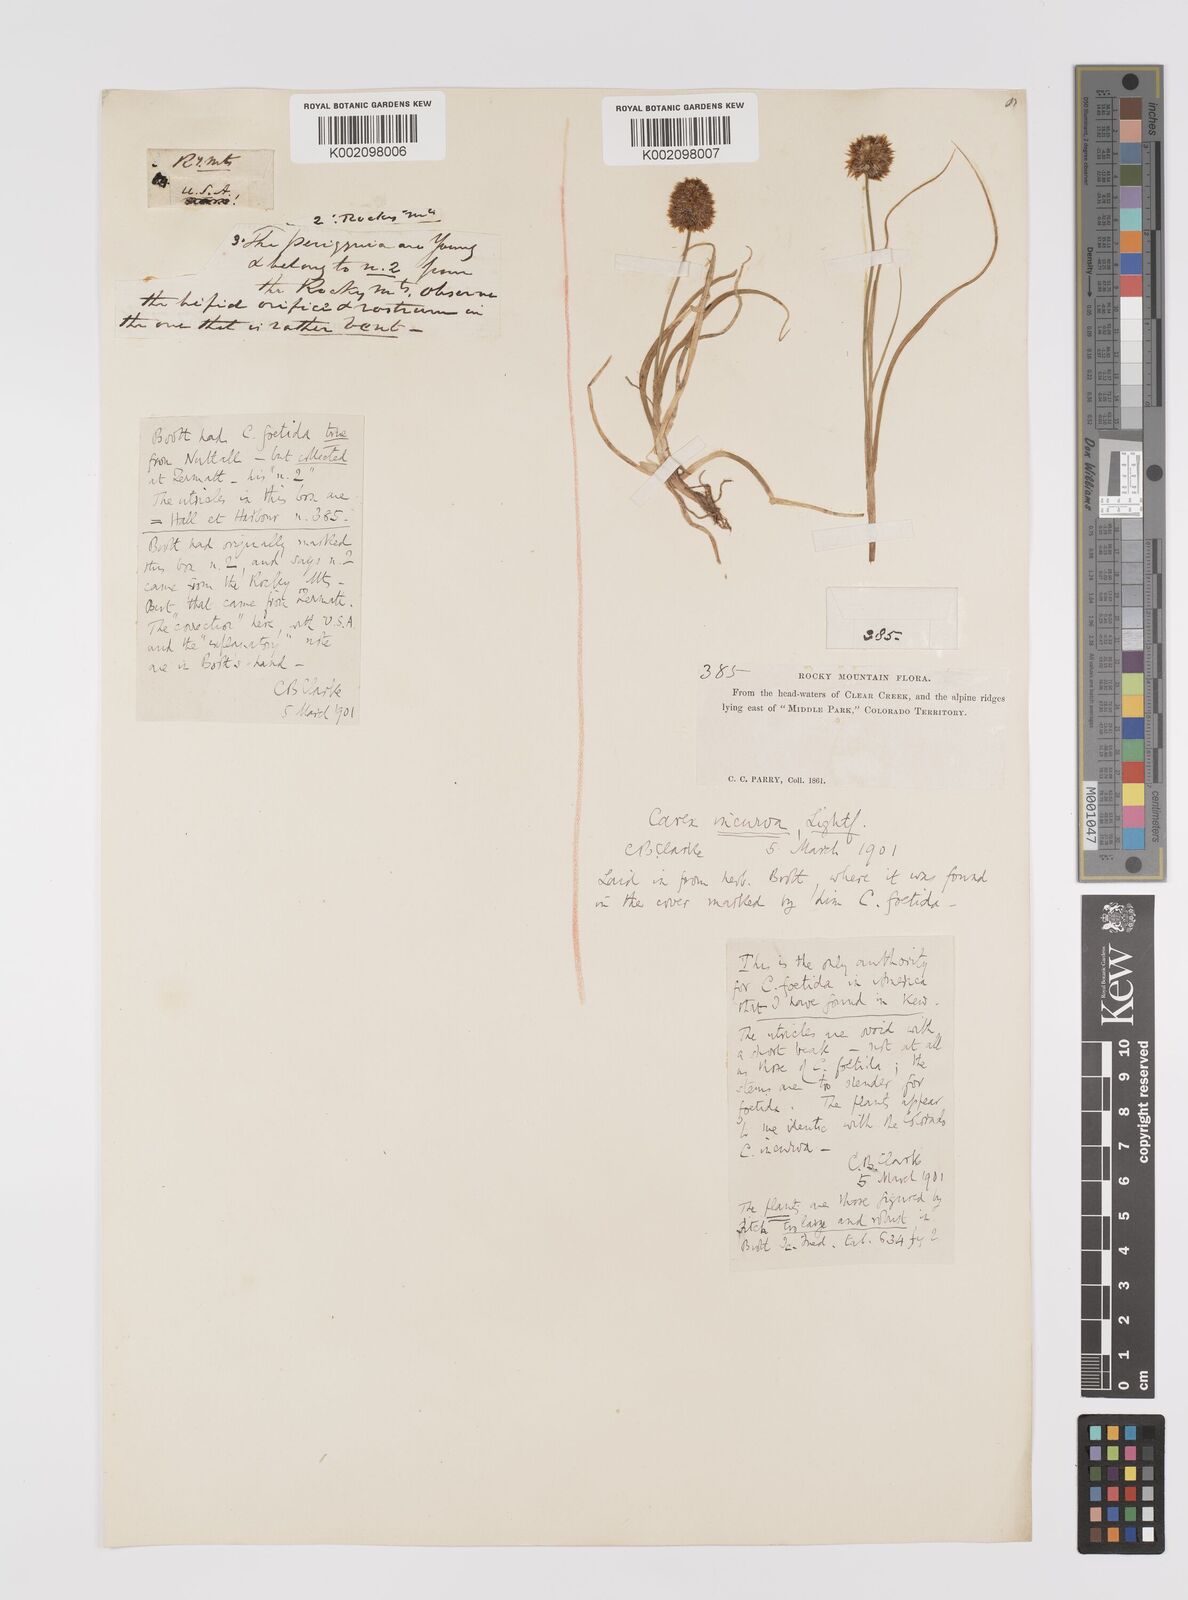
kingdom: Plantae
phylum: Tracheophyta
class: Liliopsida
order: Poales
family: Cyperaceae
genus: Carex
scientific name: Carex maritima
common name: Curved sedge
